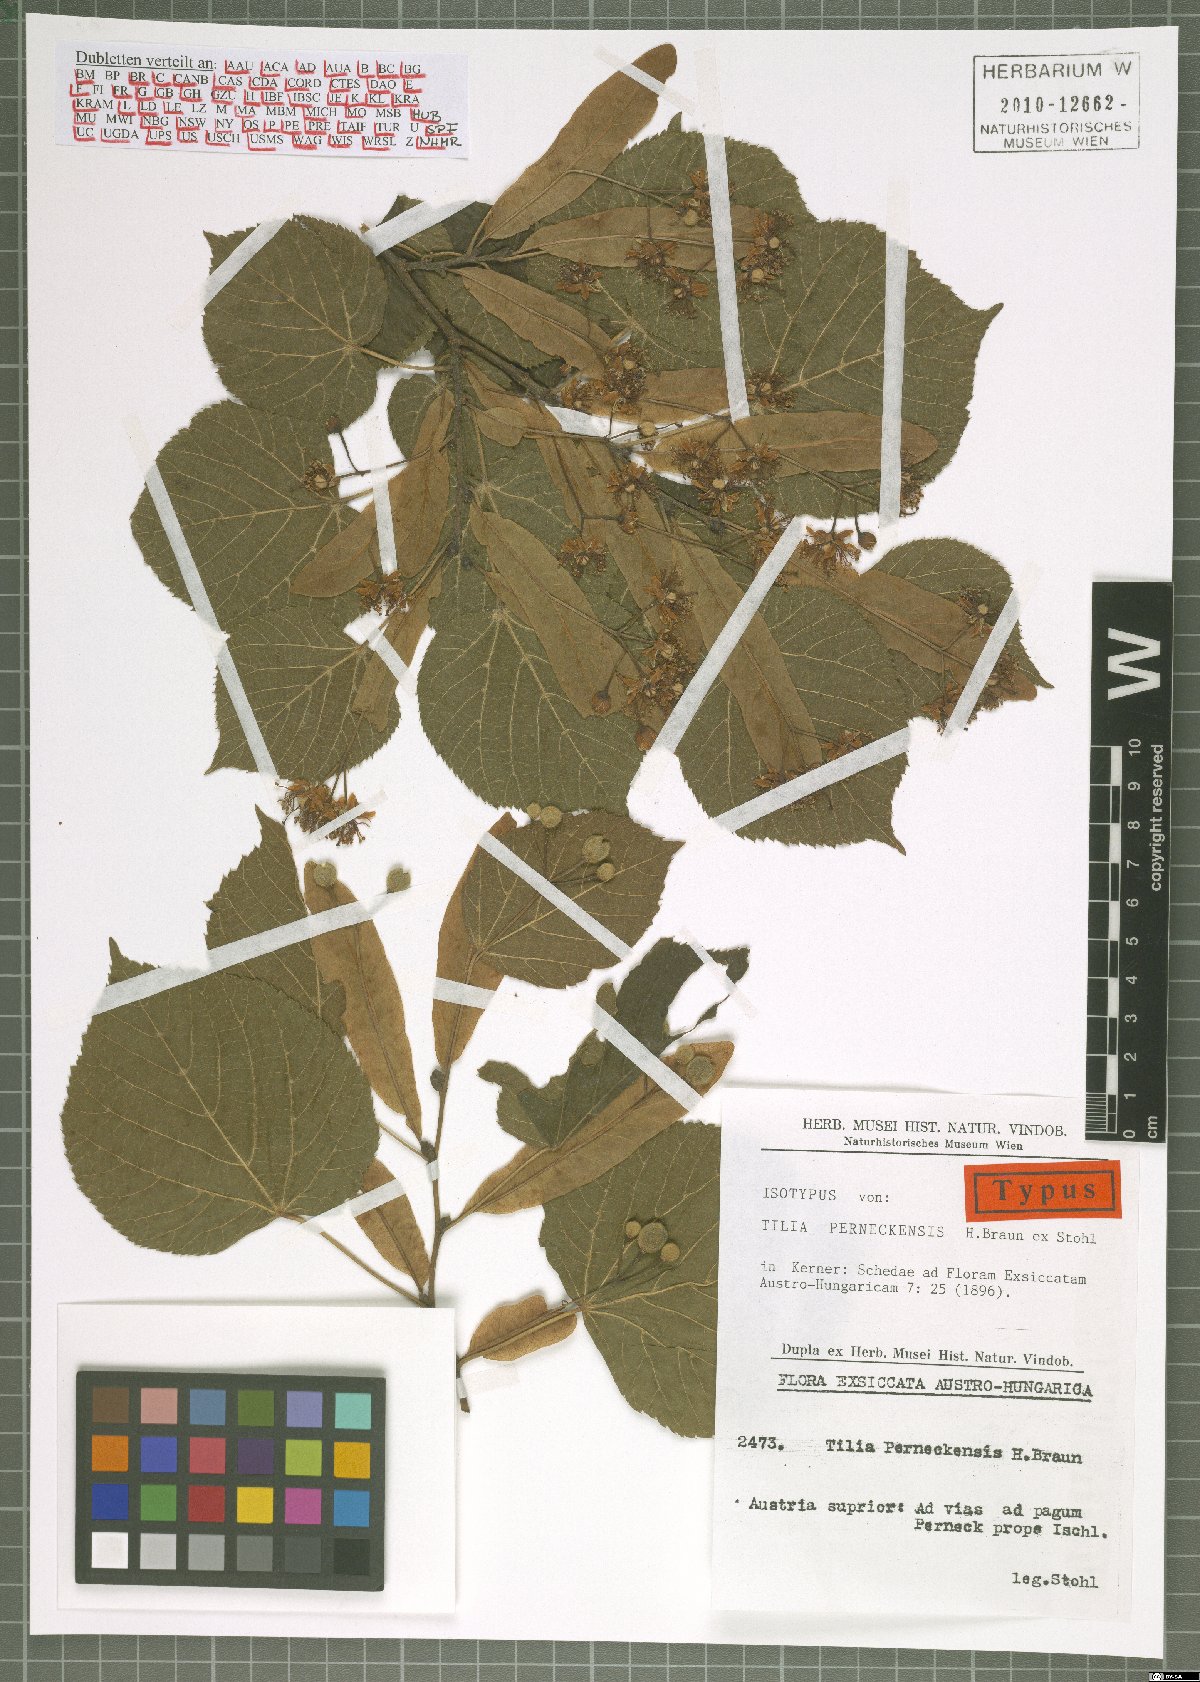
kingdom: Plantae
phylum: Tracheophyta
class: Magnoliopsida
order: Malvales
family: Malvaceae
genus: Tilia
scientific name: Tilia platyphyllos
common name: Large-leaved lime
